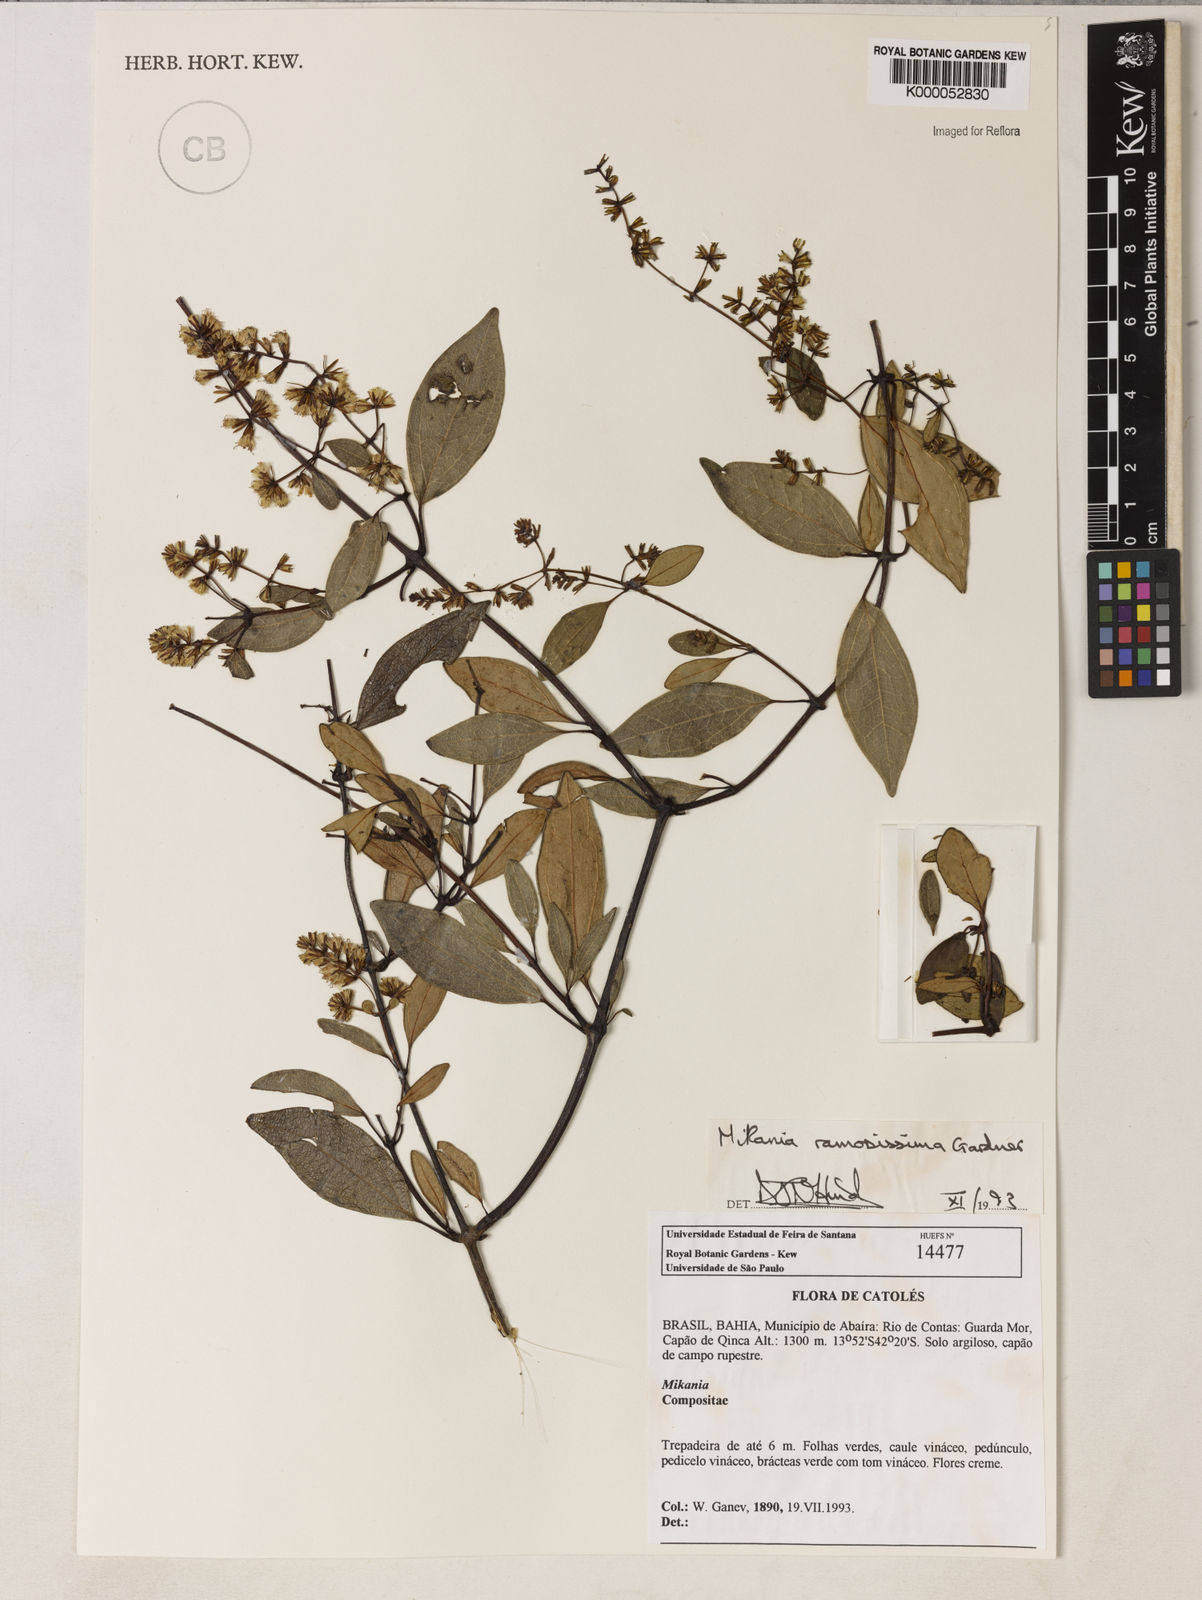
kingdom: Plantae
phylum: Tracheophyta
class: Magnoliopsida
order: Asterales
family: Asteraceae
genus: Mikania
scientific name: Mikania ramosissima
